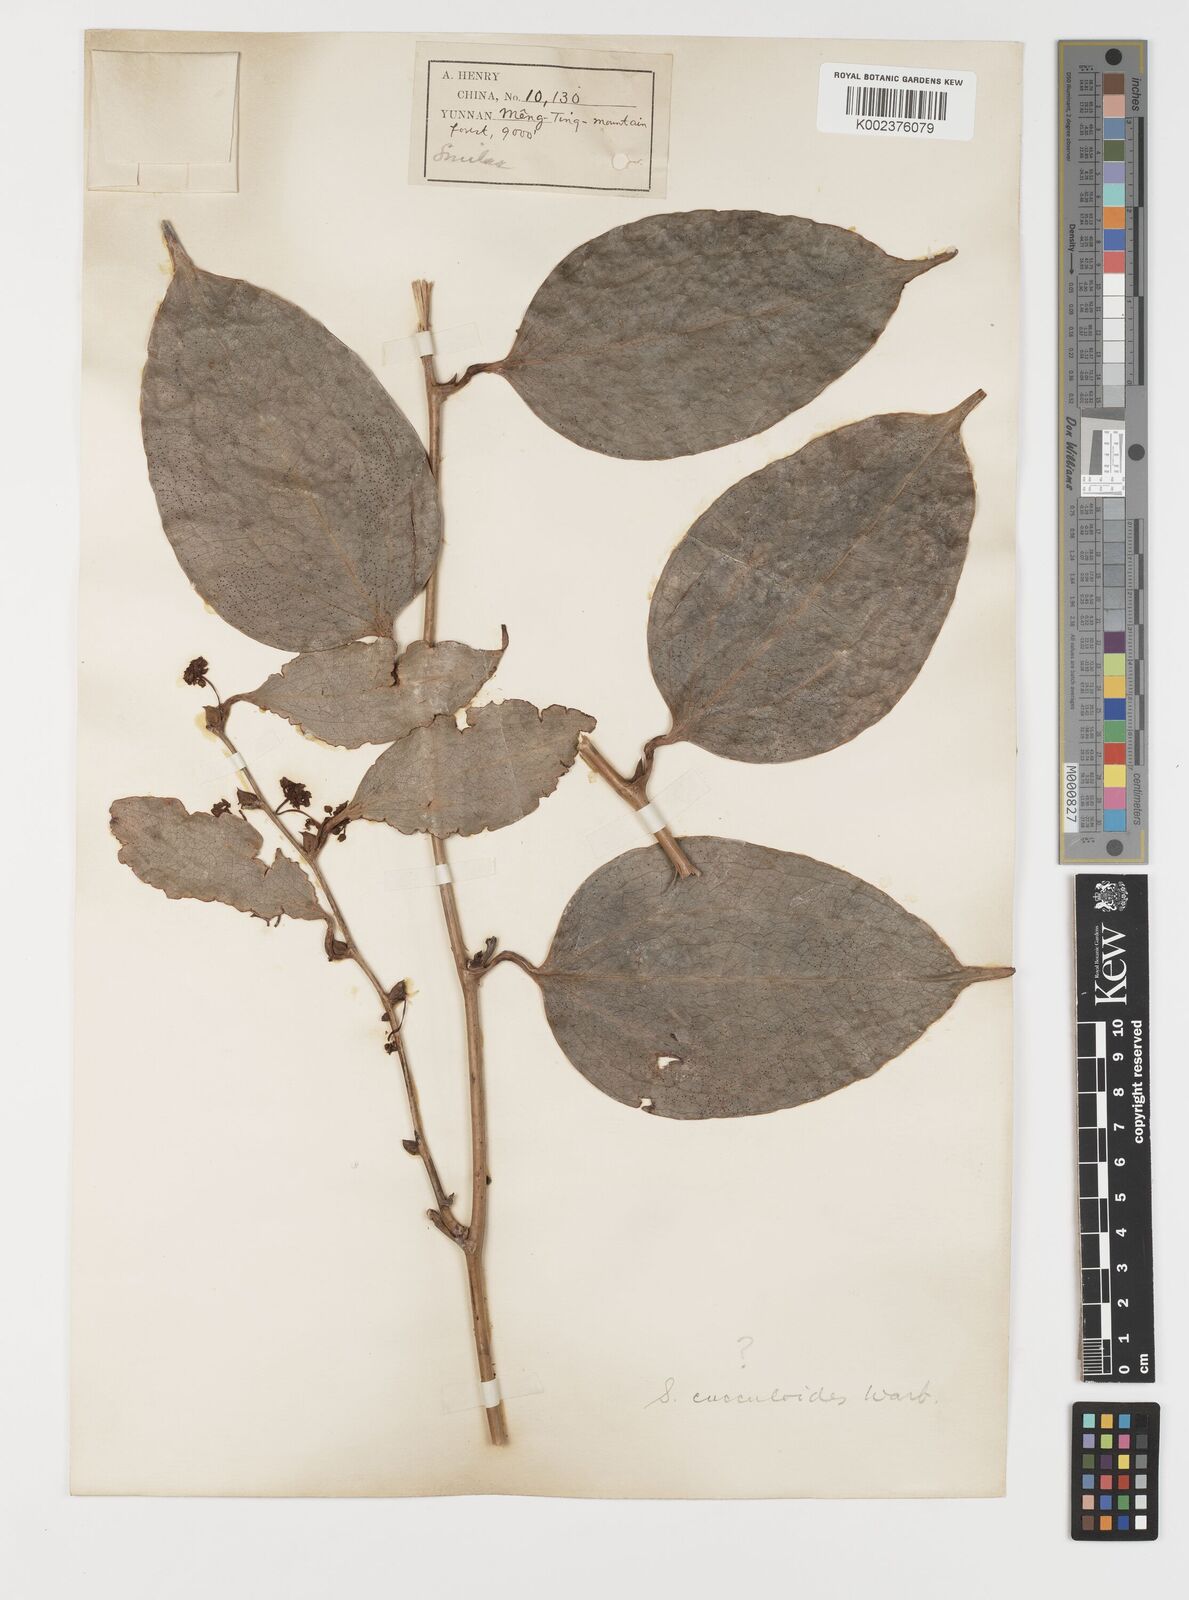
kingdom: Plantae
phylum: Tracheophyta
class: Liliopsida
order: Liliales
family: Smilacaceae
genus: Smilax
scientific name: Smilax cocculoides
